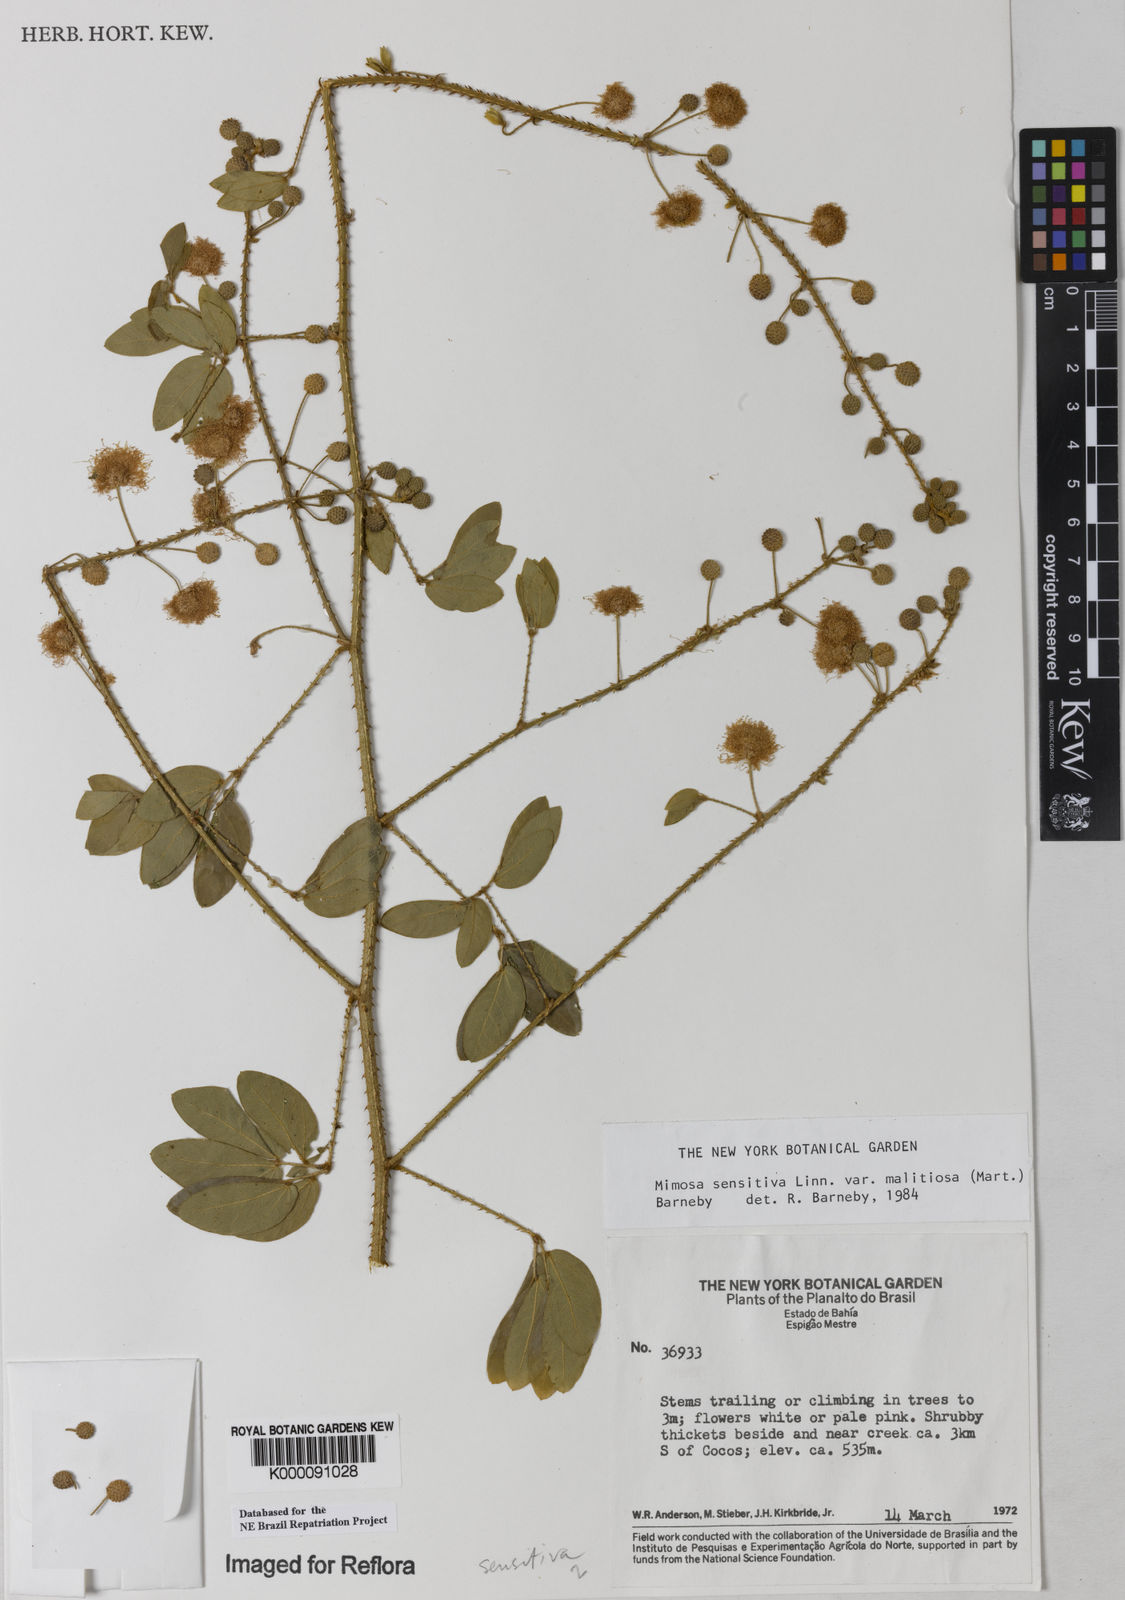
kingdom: Plantae
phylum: Tracheophyta
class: Magnoliopsida
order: Fabales
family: Fabaceae
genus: Mimosa
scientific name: Mimosa sensitiva
